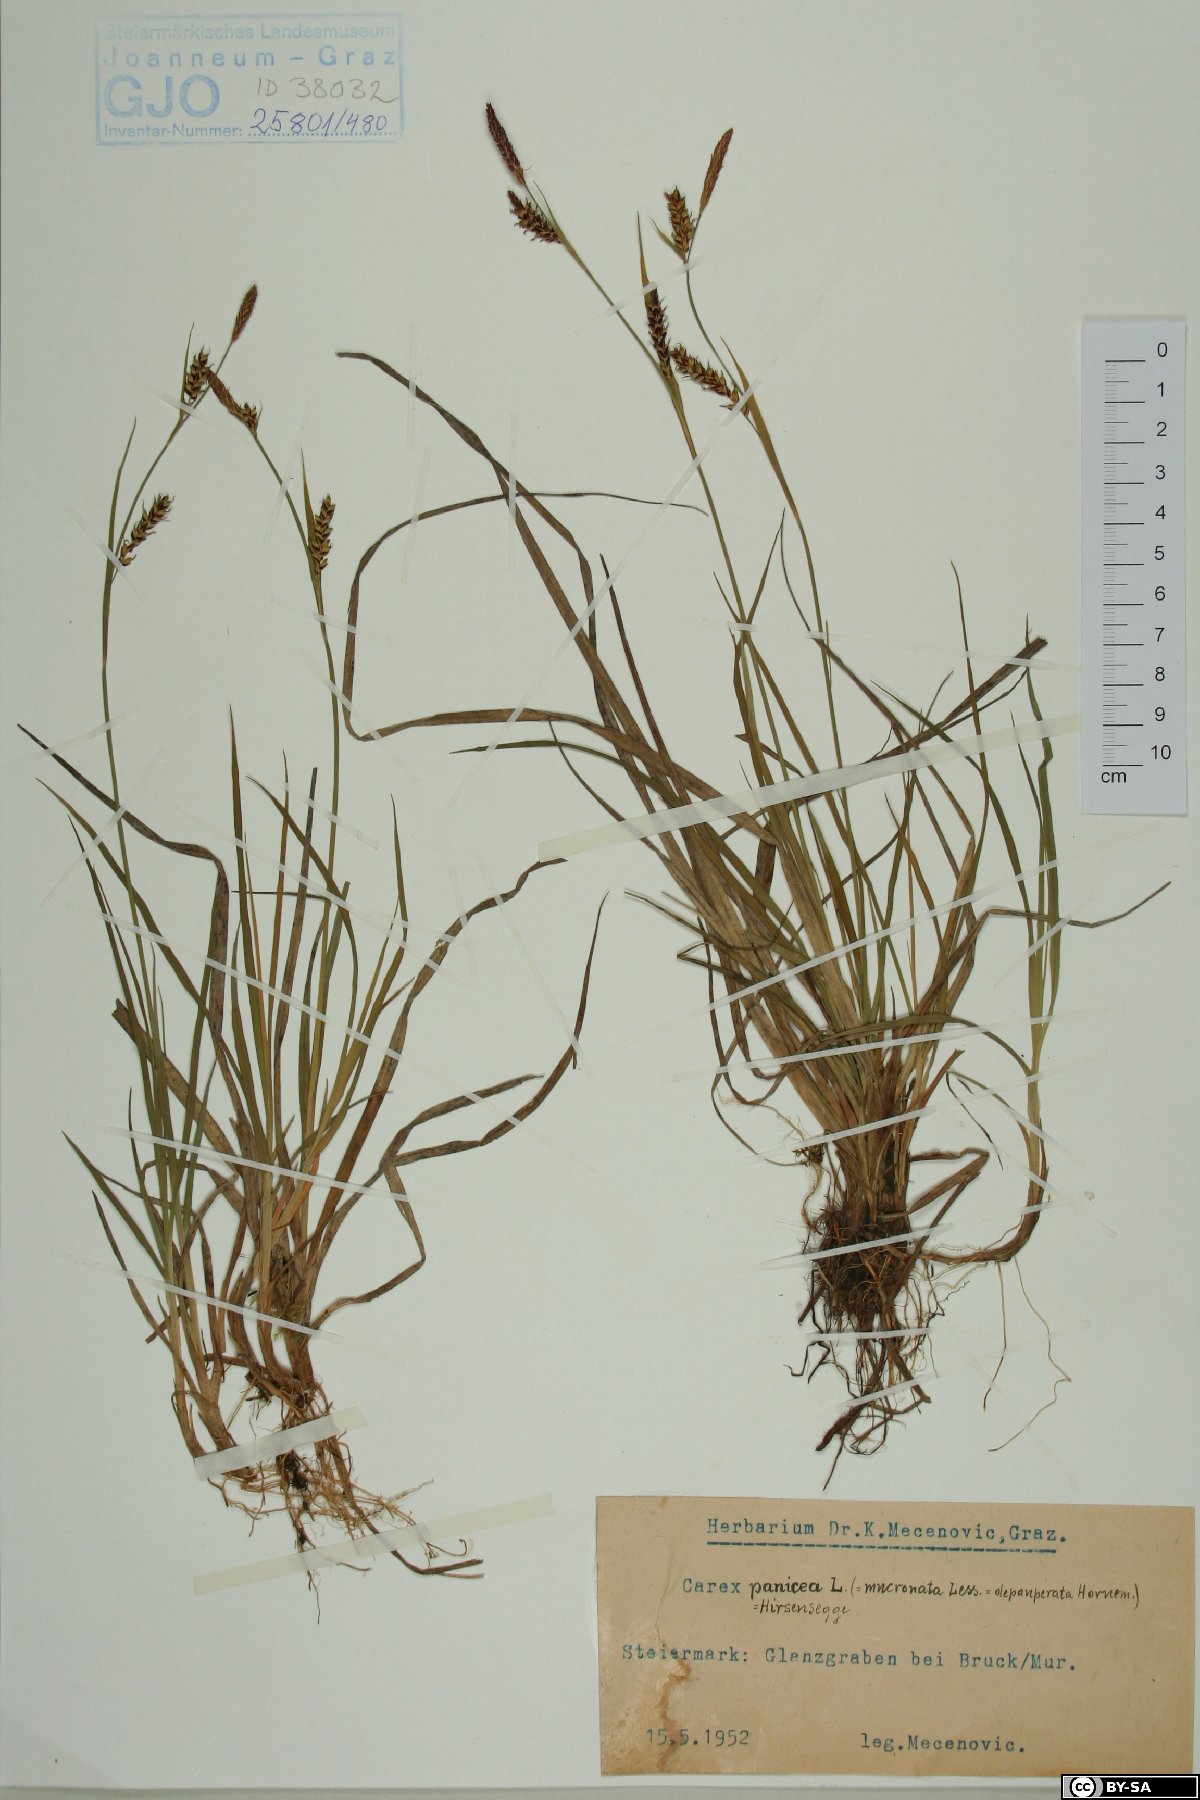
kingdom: Plantae
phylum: Tracheophyta
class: Liliopsida
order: Poales
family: Cyperaceae
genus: Carex
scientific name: Carex panicea
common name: Carnation sedge
